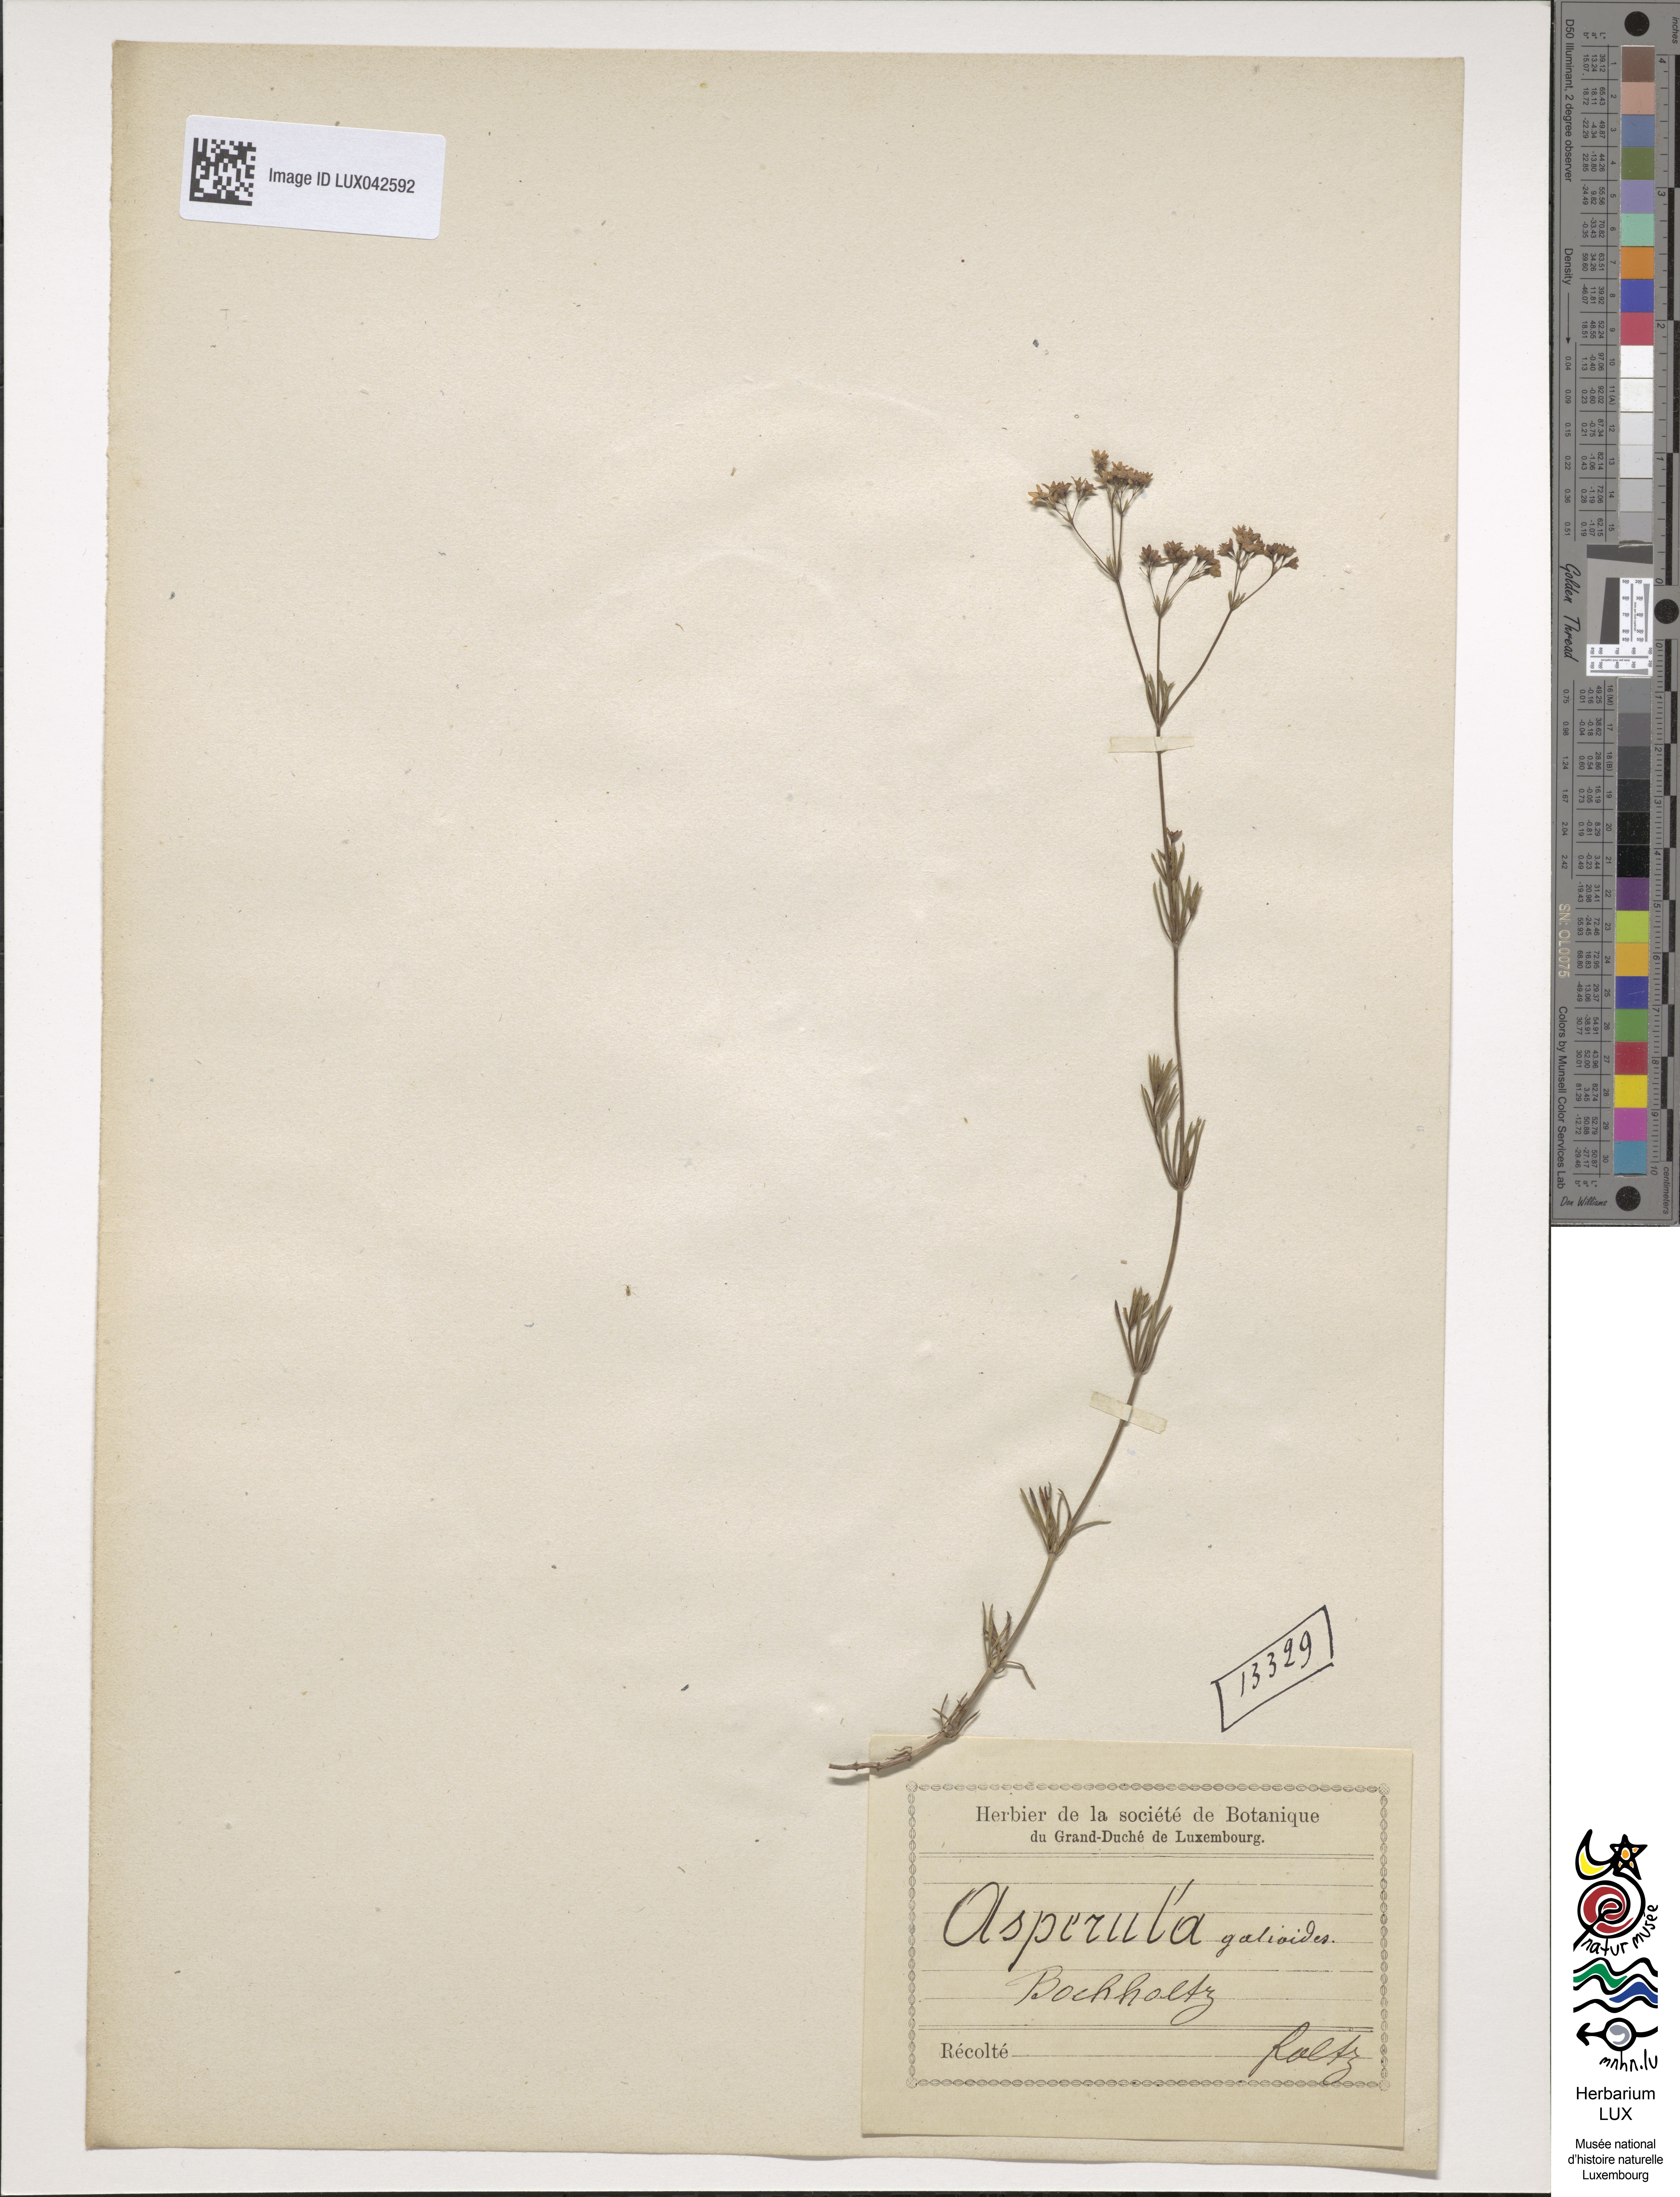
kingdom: Plantae
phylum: Tracheophyta
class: Magnoliopsida
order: Gentianales
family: Rubiaceae
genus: Galium
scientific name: Galium glaucum
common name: Waxy bedstraw
